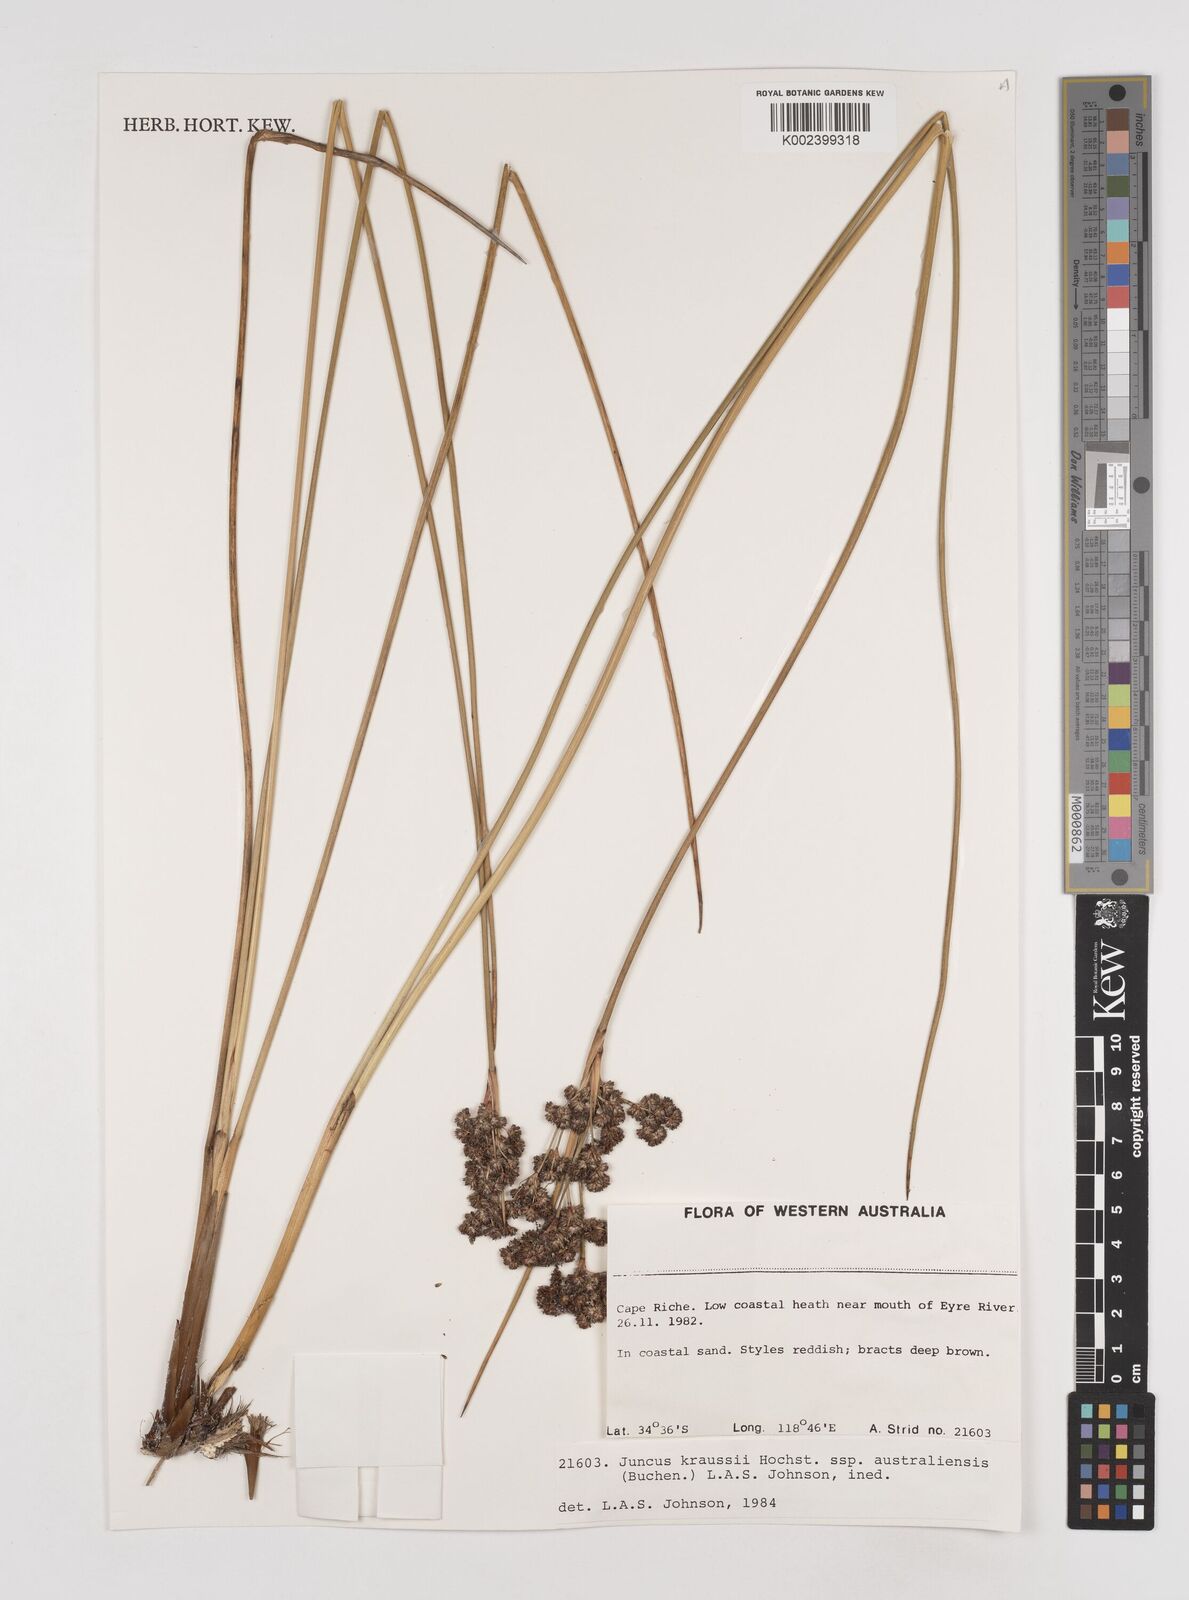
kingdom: Plantae
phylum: Tracheophyta
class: Liliopsida
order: Poales
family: Juncaceae
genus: Juncus
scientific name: Juncus kraussii
